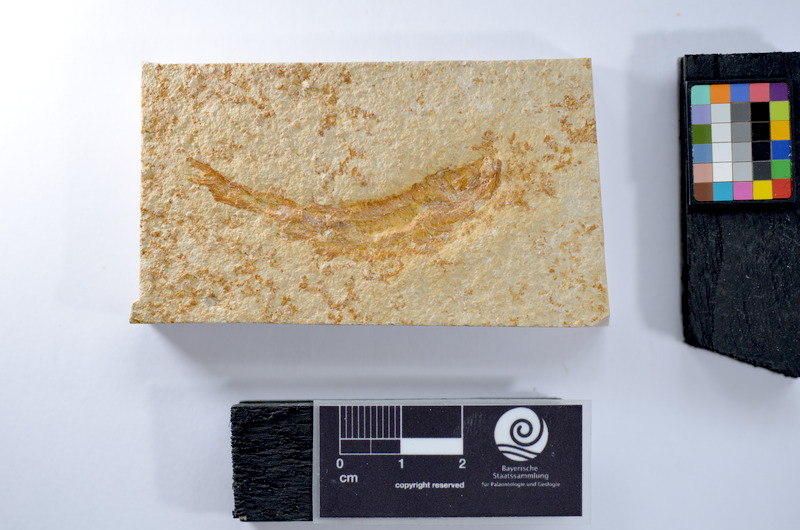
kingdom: Animalia
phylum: Chordata
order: Salmoniformes
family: Orthogonikleithridae
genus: Leptolepides
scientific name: Leptolepides
